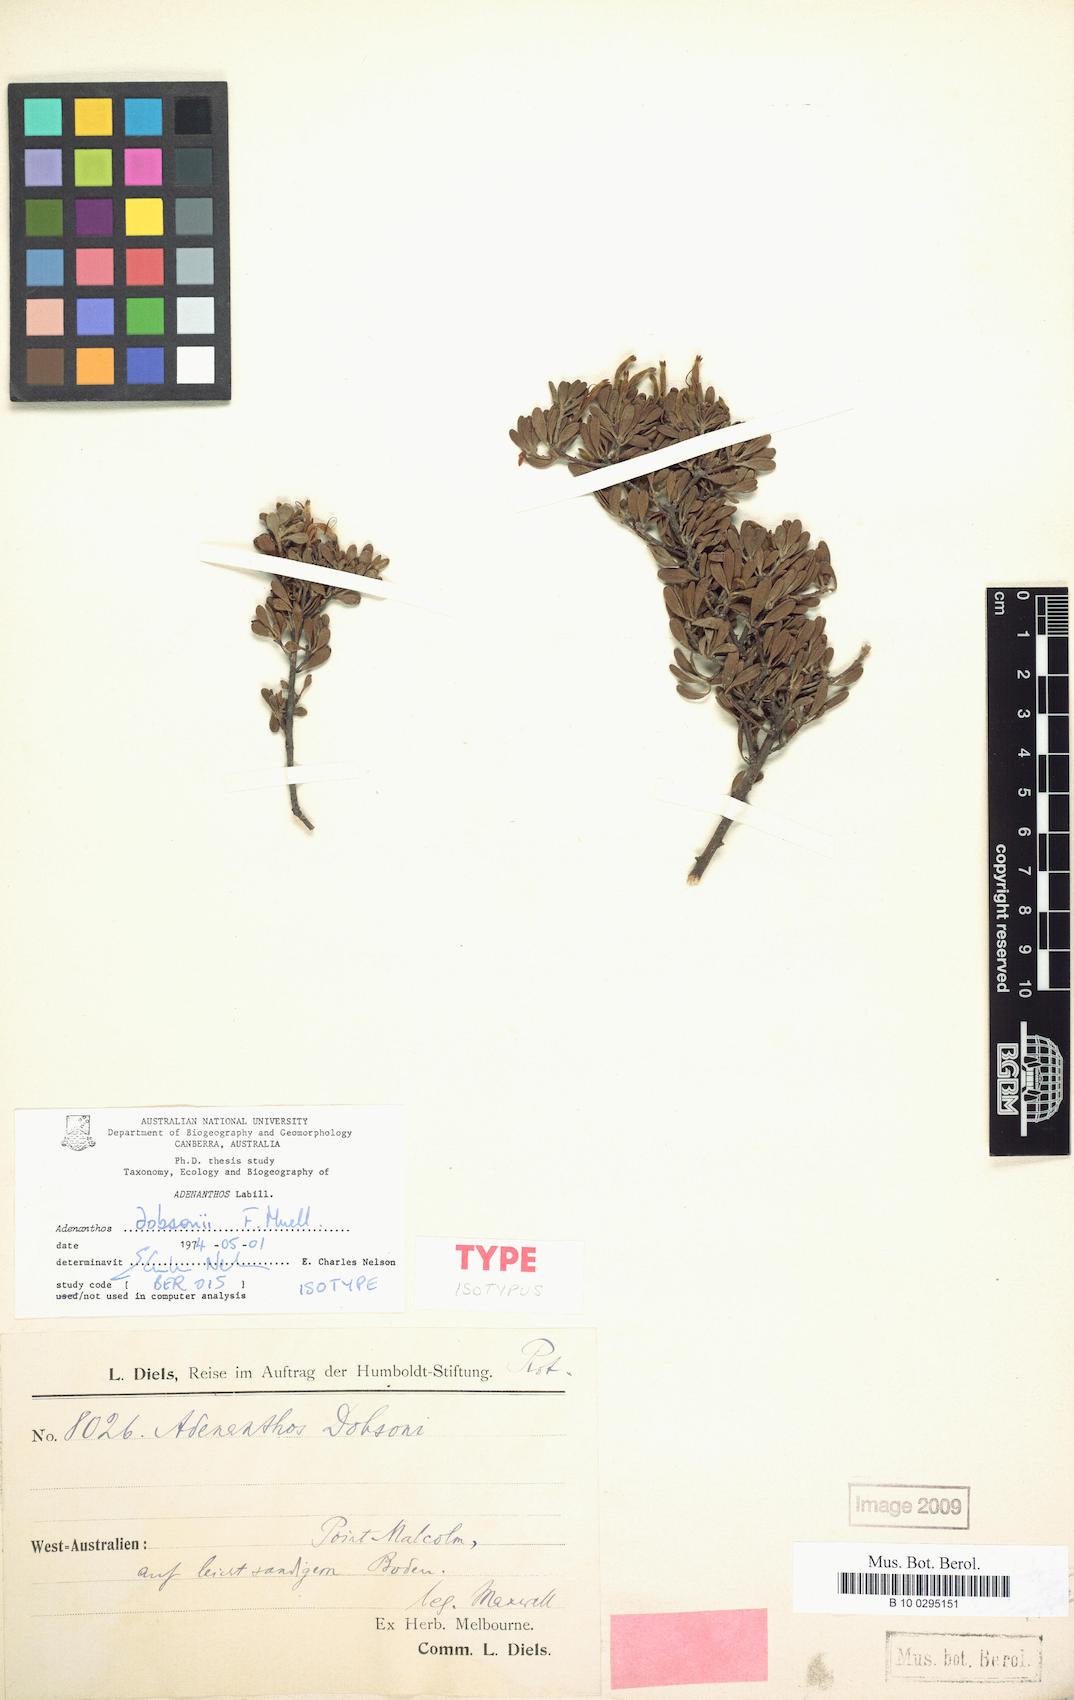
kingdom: Plantae
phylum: Tracheophyta
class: Magnoliopsida
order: Proteales
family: Proteaceae
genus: Adenanthos
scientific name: Adenanthos dobsonii
